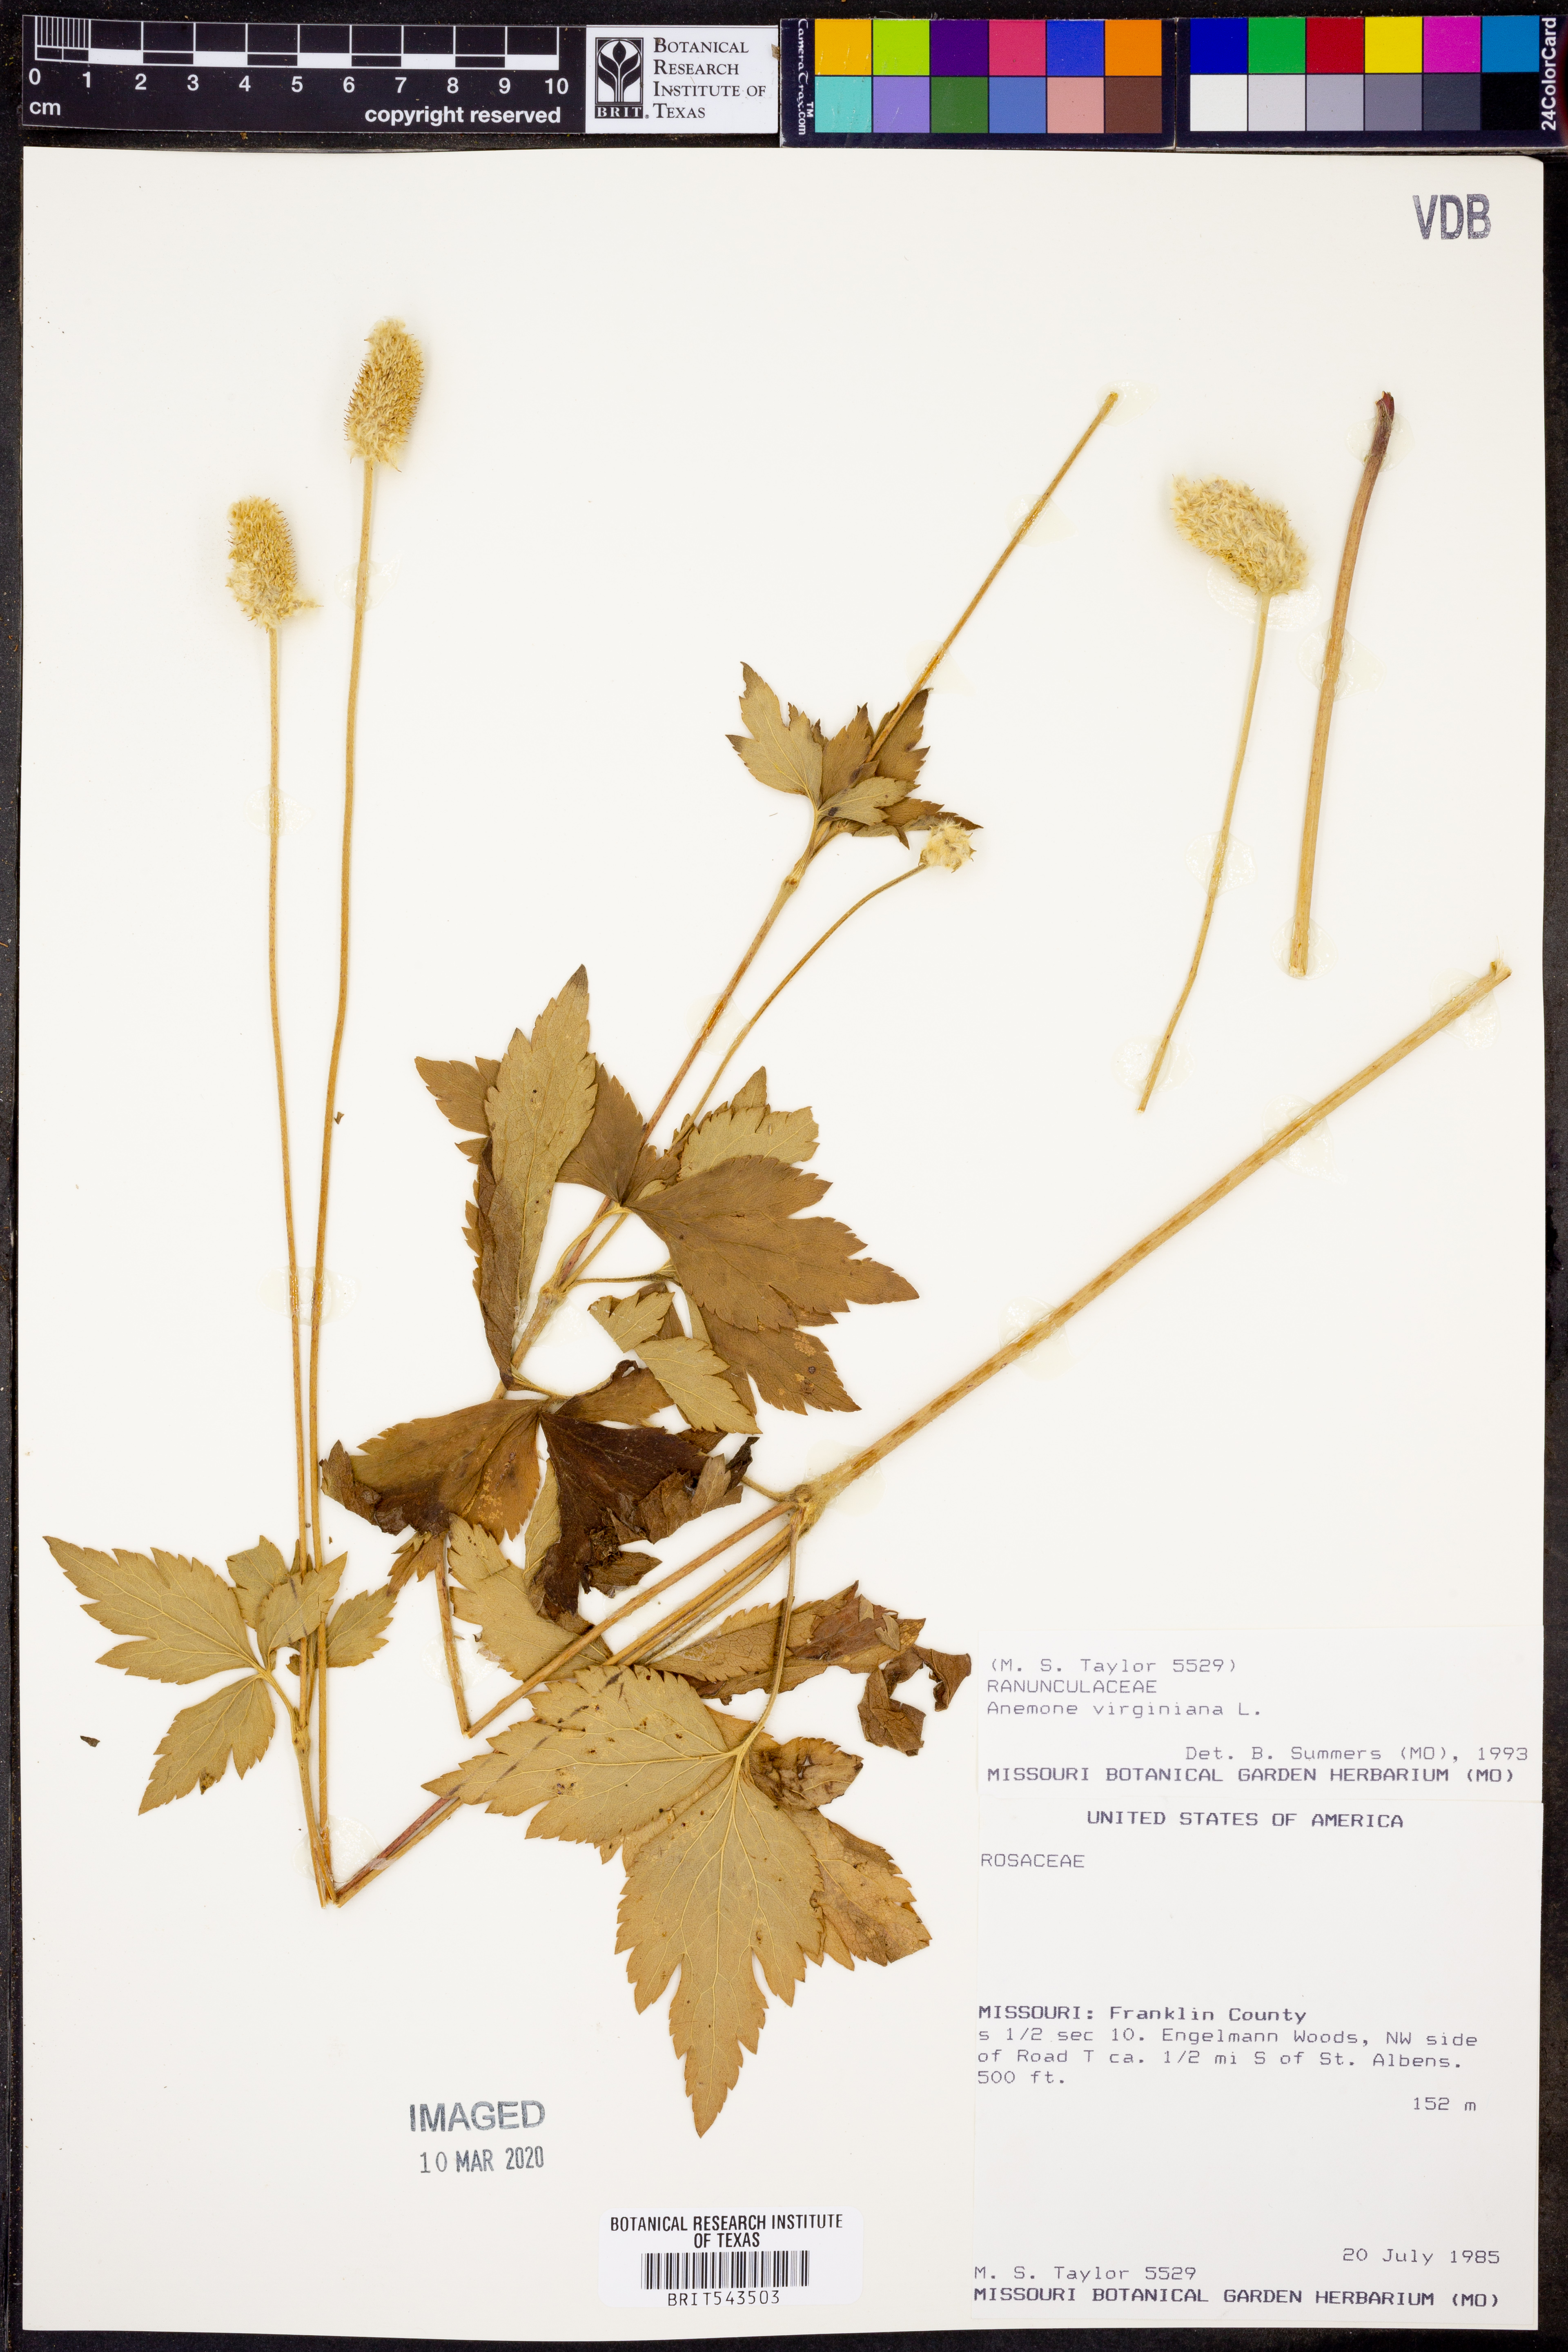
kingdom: Plantae
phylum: Tracheophyta
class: Magnoliopsida
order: Ranunculales
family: Ranunculaceae
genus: Anemone
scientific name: Anemone virginiana
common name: Tall anemone
